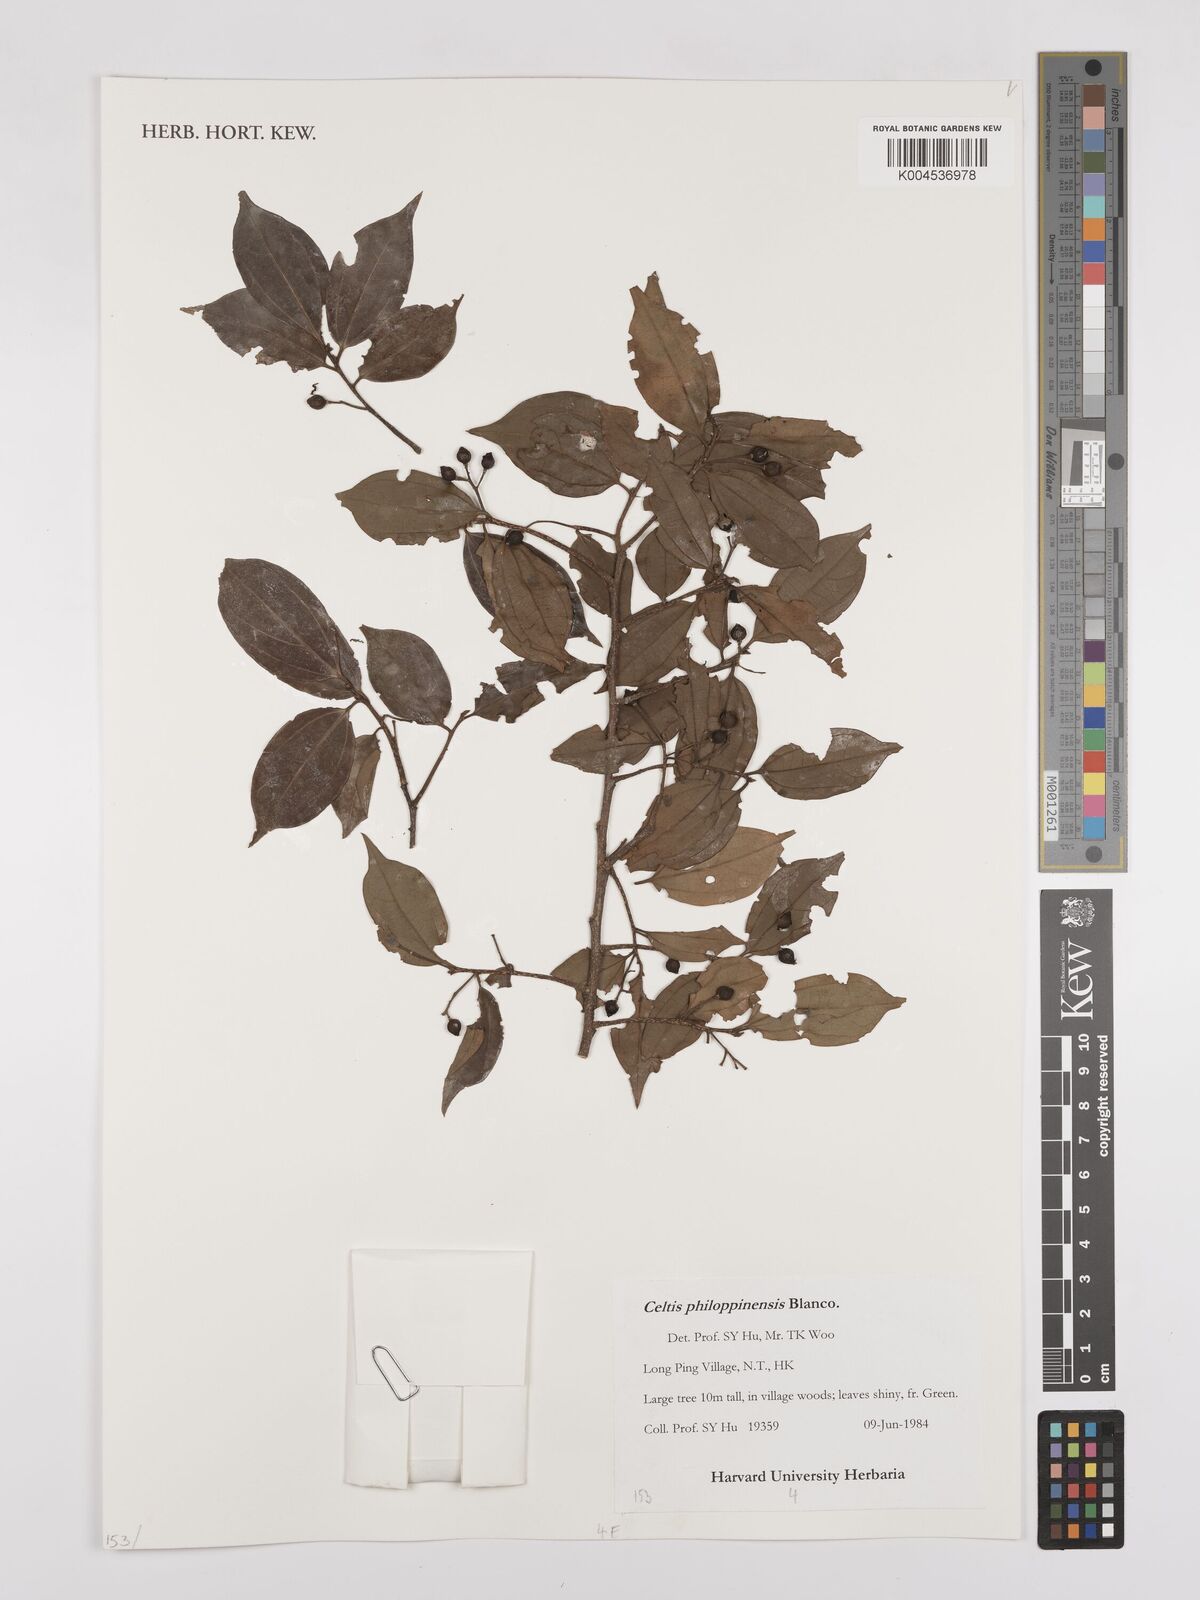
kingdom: Plantae
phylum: Tracheophyta
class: Magnoliopsida
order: Rosales
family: Cannabaceae
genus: Celtis
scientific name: Celtis philippensis
